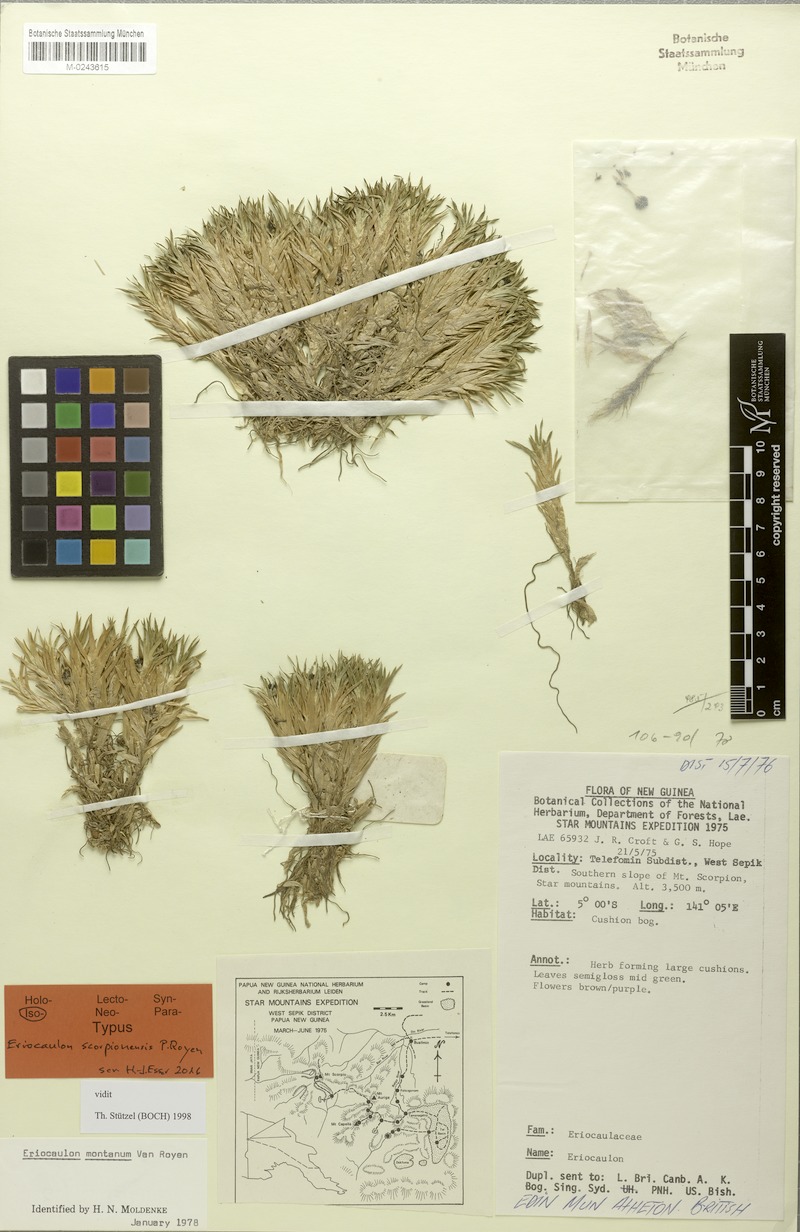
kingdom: Plantae
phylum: Tracheophyta
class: Liliopsida
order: Poales
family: Eriocaulaceae
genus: Eriocaulon
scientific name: Eriocaulon scorpionensis
